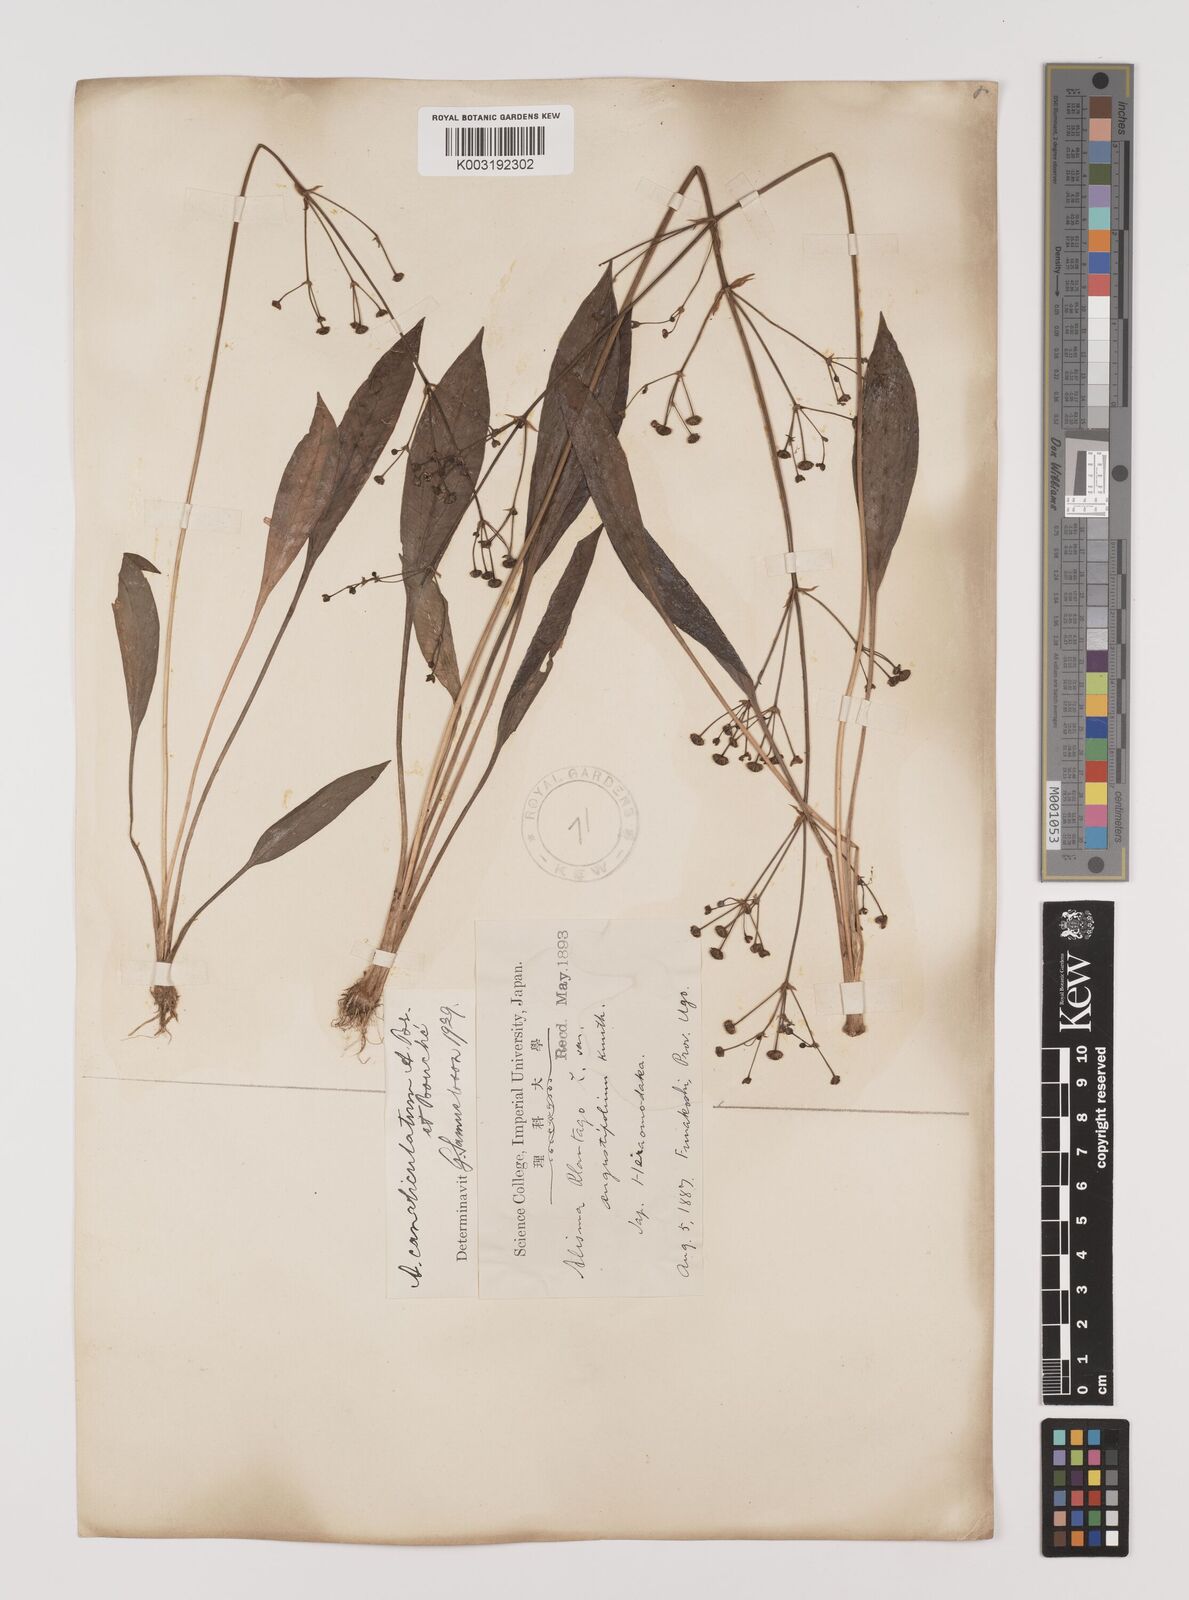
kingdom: Plantae
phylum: Tracheophyta
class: Liliopsida
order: Alismatales
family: Alismataceae
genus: Alisma
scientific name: Alisma canaliculatum
